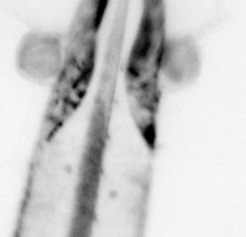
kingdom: Animalia
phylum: Chaetognatha
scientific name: Chaetognatha
